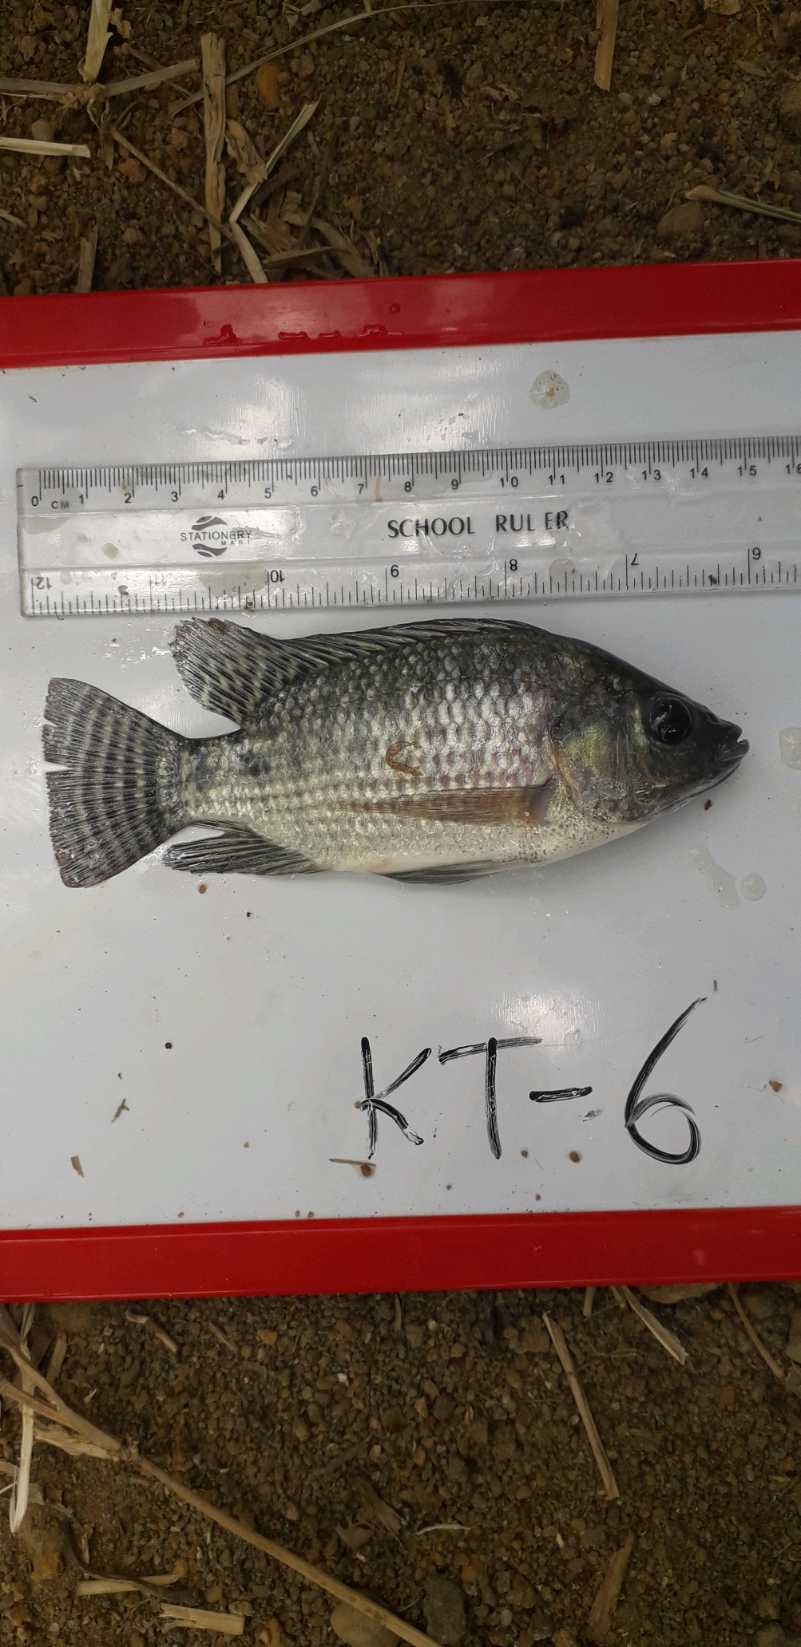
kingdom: Animalia
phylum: Chordata
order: Perciformes
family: Cichlidae
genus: Oreochromis
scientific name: Oreochromis niloticus
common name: Nile tilapia
